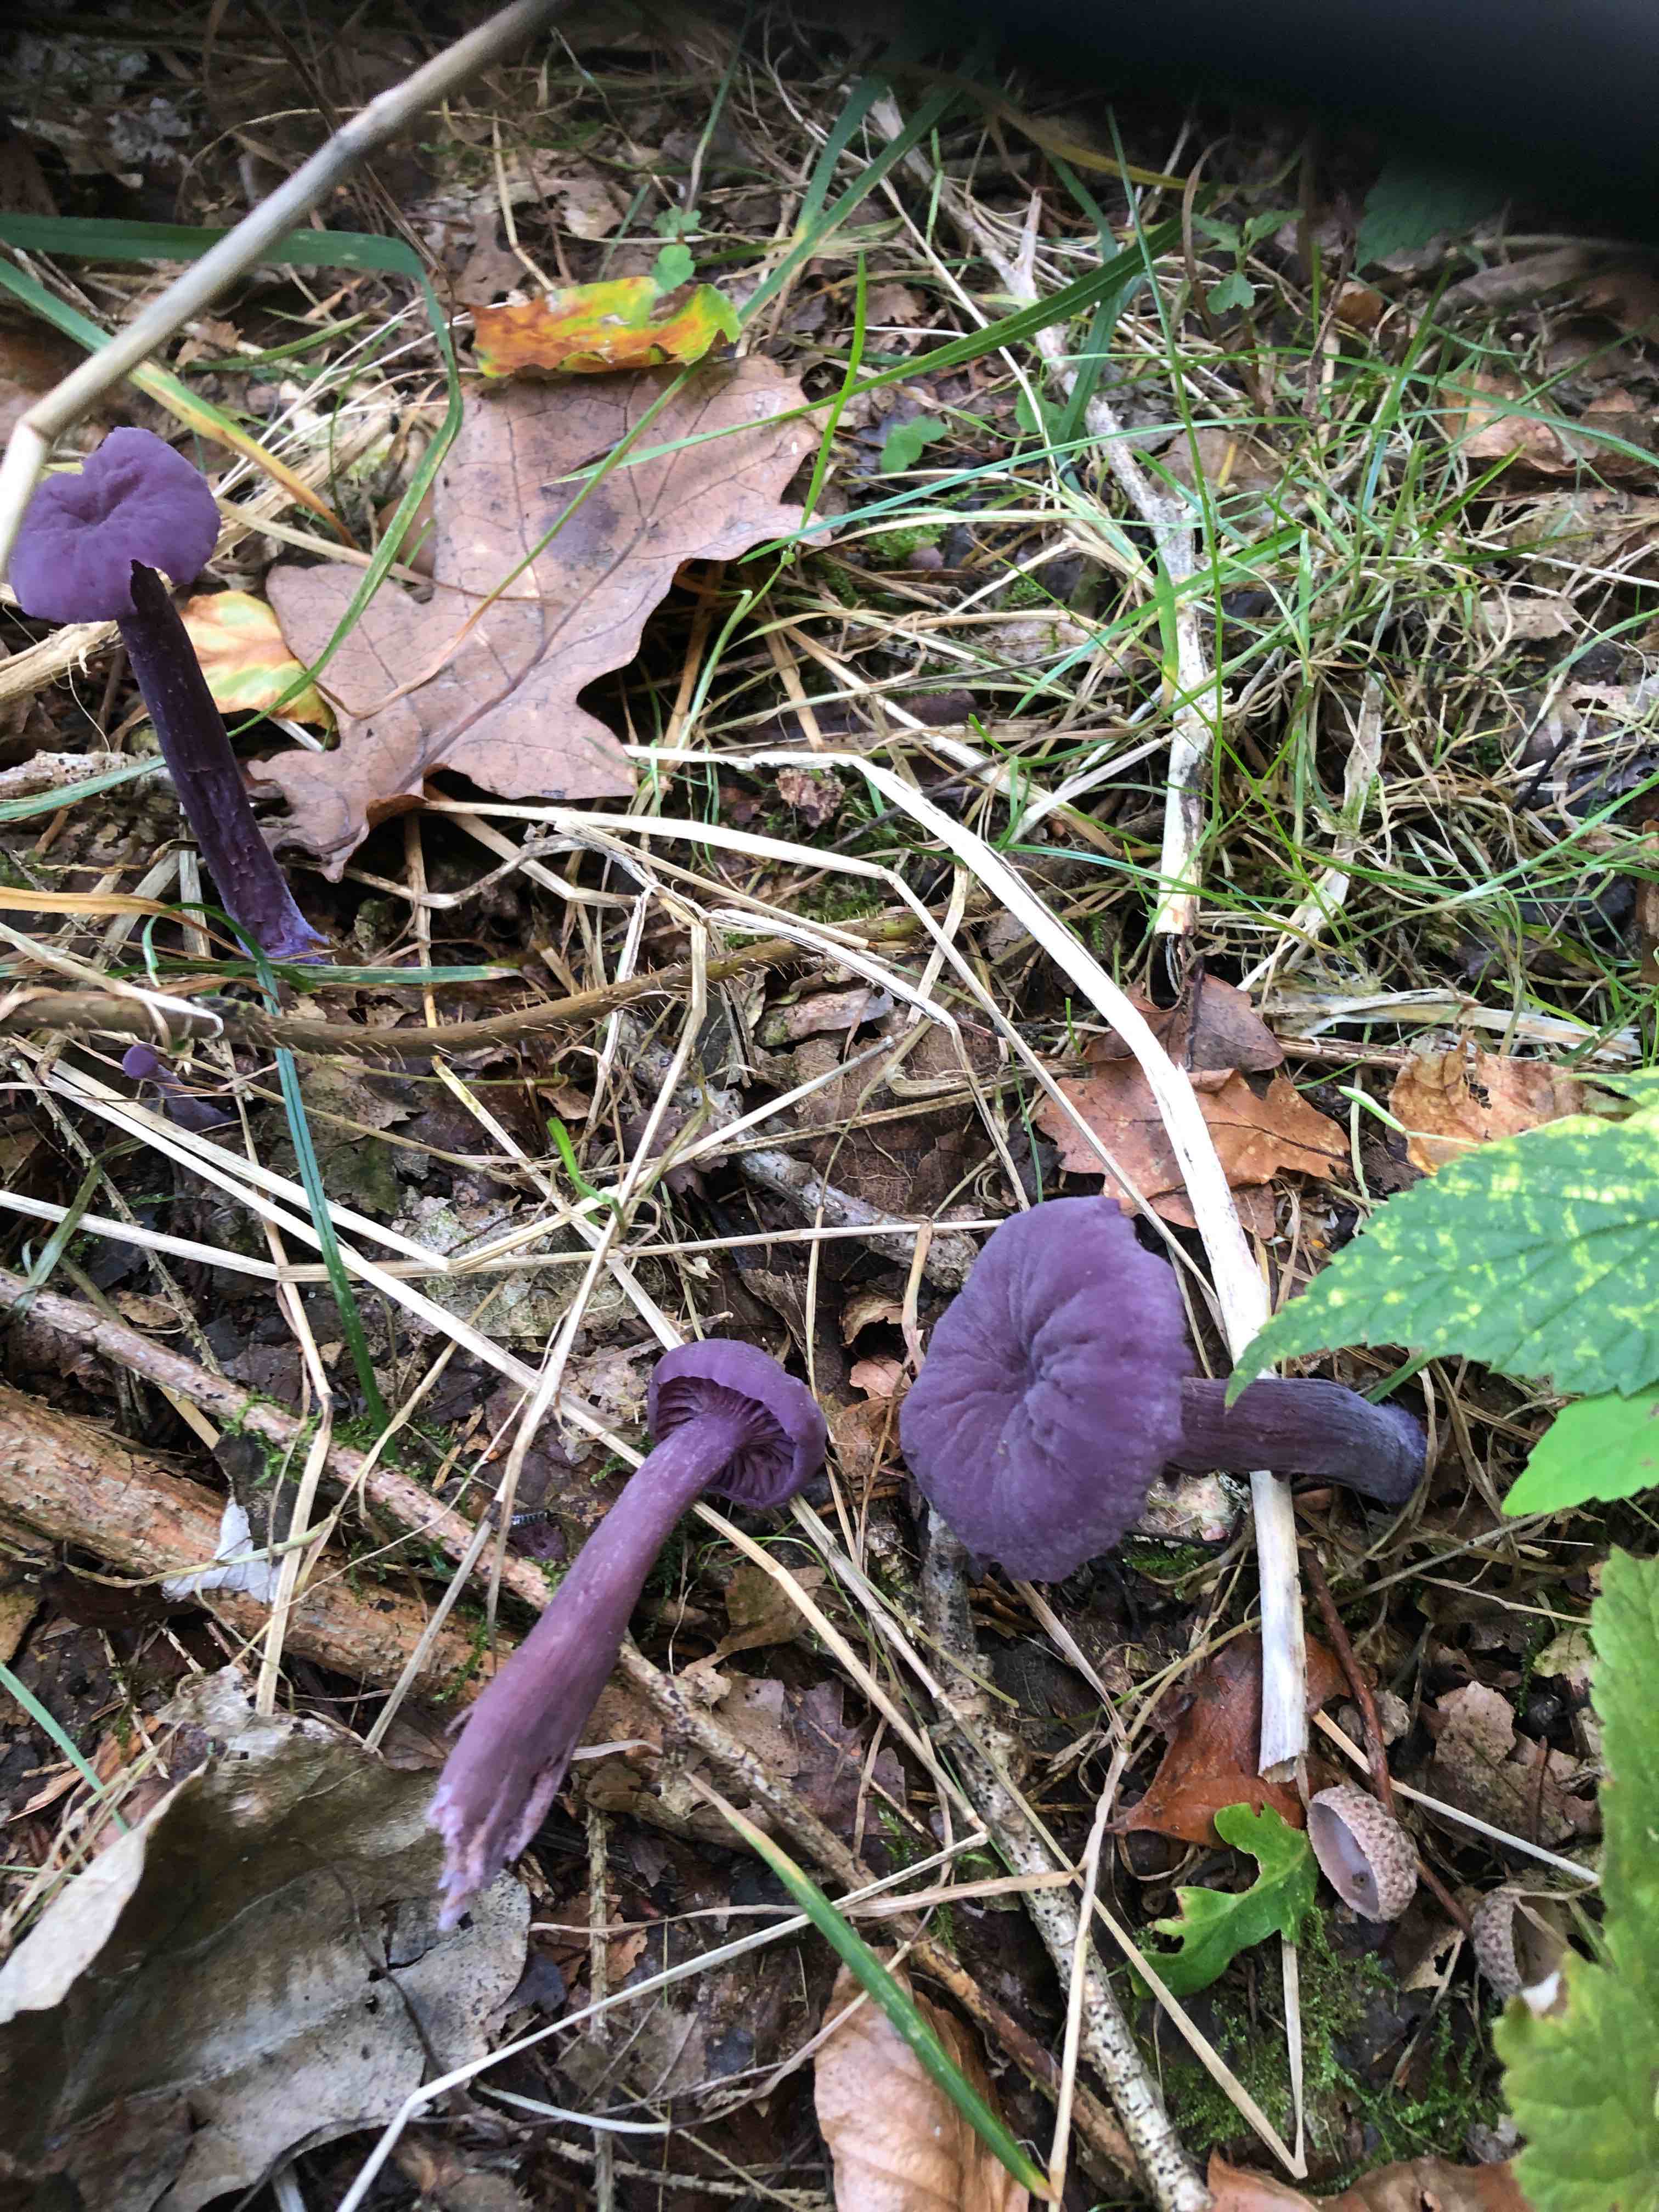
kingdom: Fungi
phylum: Basidiomycota
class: Agaricomycetes
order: Agaricales
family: Hydnangiaceae
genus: Laccaria
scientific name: Laccaria amethystina
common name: violet ametysthat
